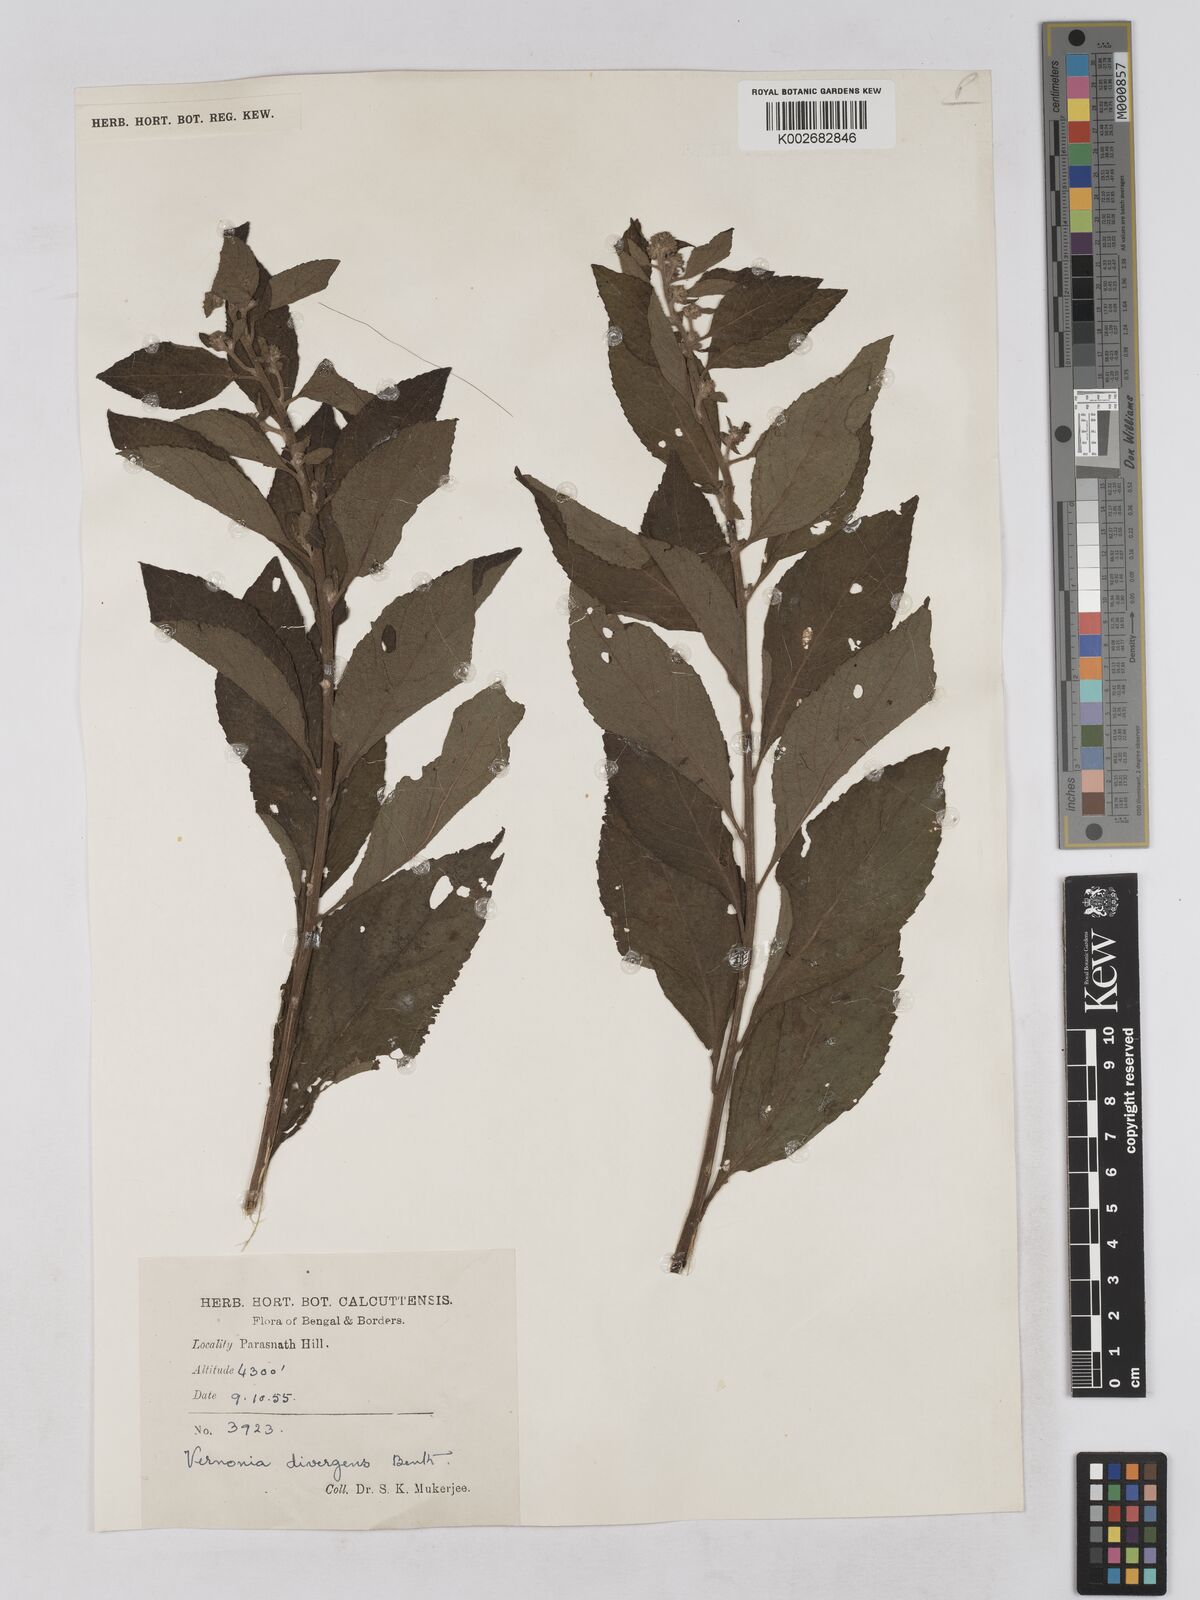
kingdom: Plantae
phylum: Tracheophyta
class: Magnoliopsida
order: Asterales
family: Asteraceae
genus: Acilepis
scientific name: Acilepis divergens
